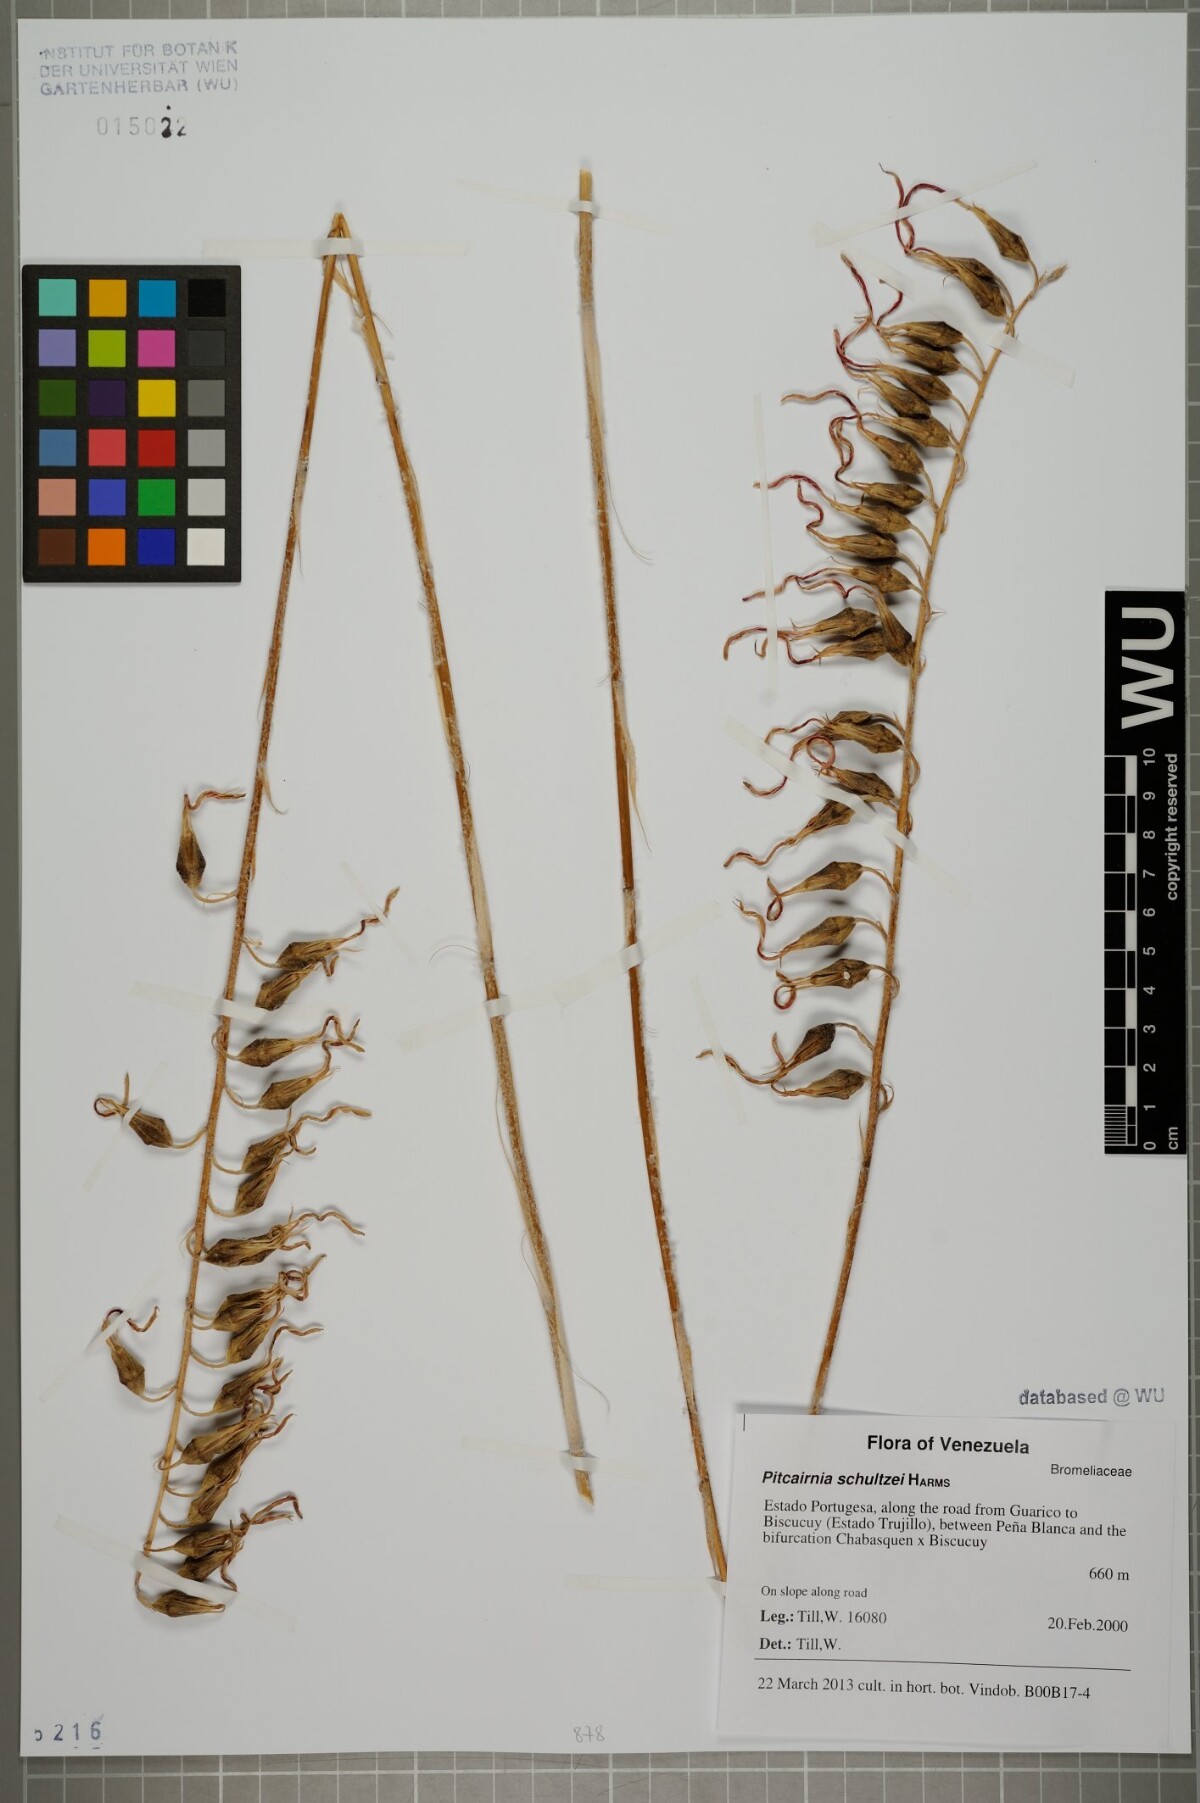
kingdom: Plantae
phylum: Tracheophyta
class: Liliopsida
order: Poales
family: Bromeliaceae
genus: Pitcairnia
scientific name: Pitcairnia schultzei
